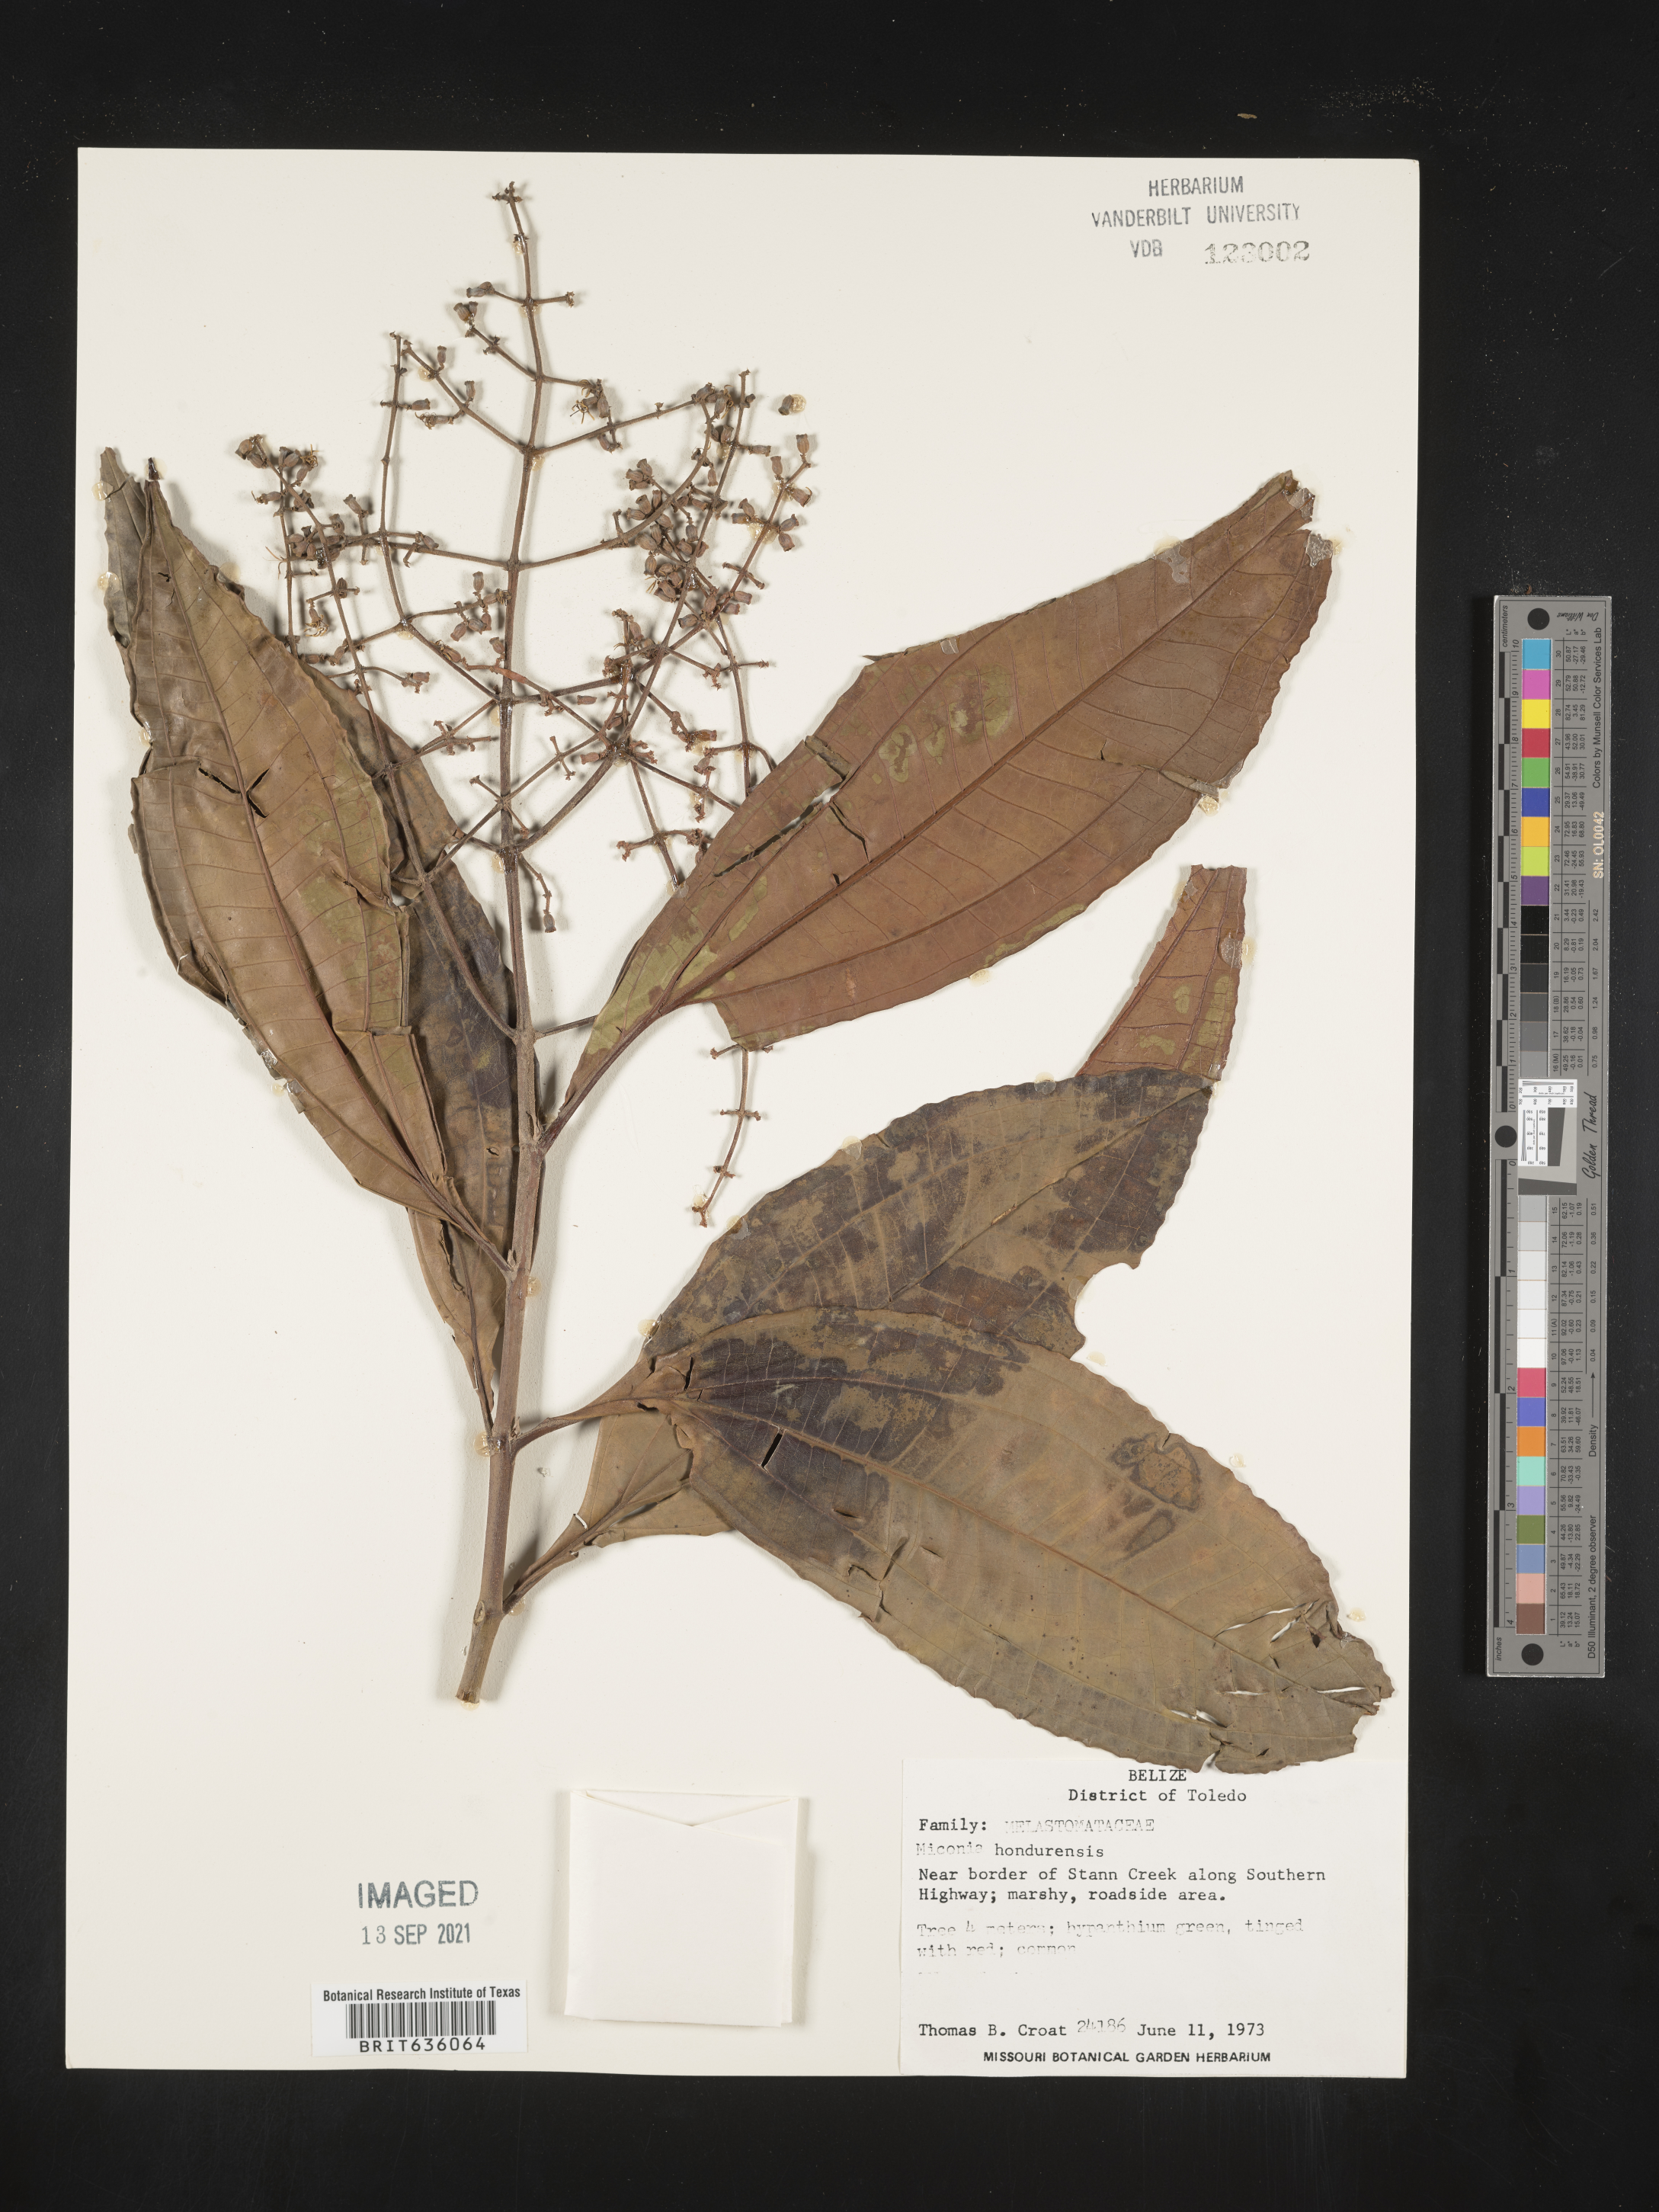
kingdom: Plantae
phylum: Tracheophyta
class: Magnoliopsida
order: Myrtales
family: Melastomataceae
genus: Miconia
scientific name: Miconia
